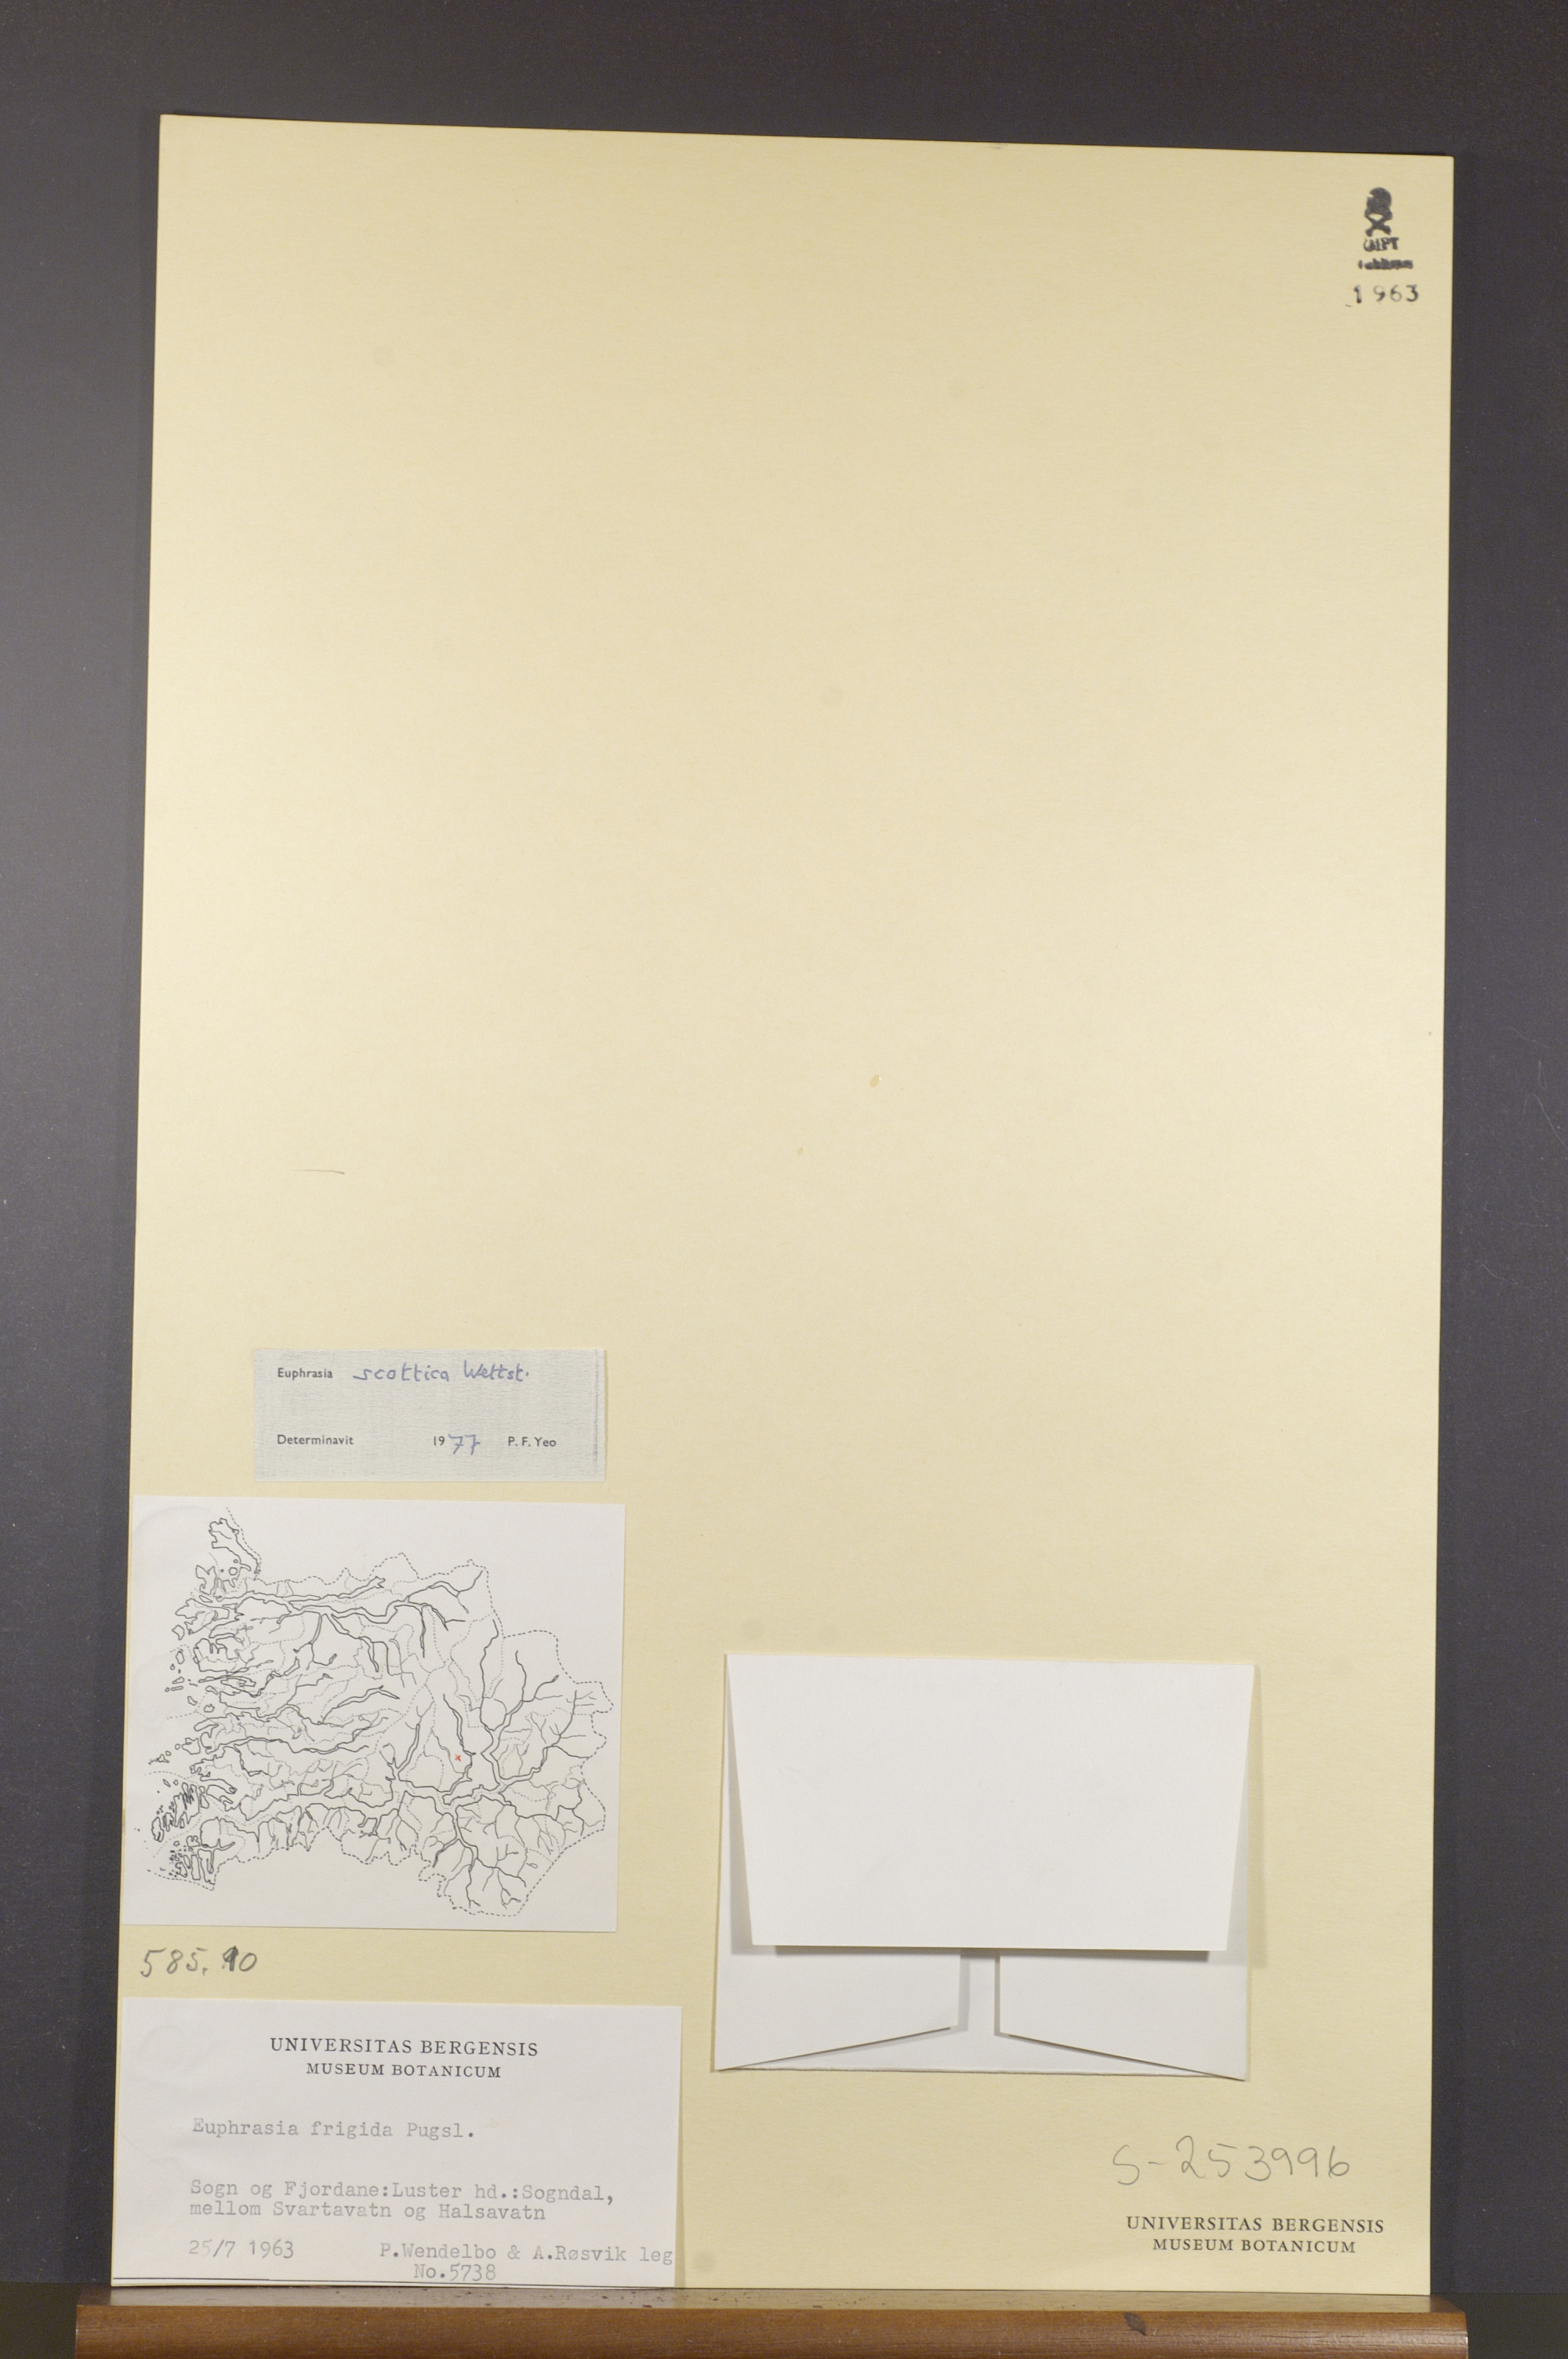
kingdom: Plantae
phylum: Tracheophyta
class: Magnoliopsida
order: Lamiales
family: Orobanchaceae
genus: Euphrasia
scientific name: Euphrasia scottica
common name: Slender scottish eyebright
